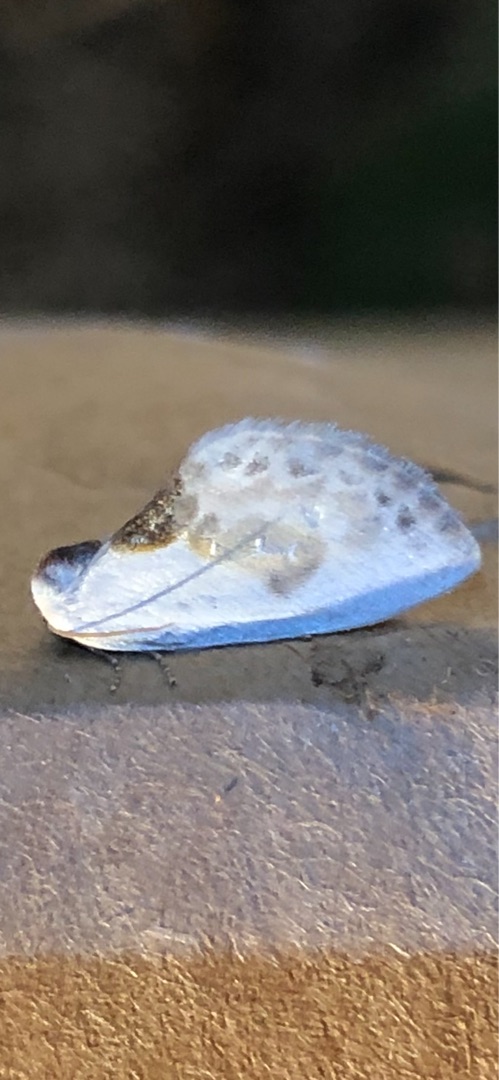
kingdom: Animalia
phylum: Arthropoda
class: Insecta
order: Lepidoptera
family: Drepanidae
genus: Cilix
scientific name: Cilix glaucata
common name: Silkevinge
